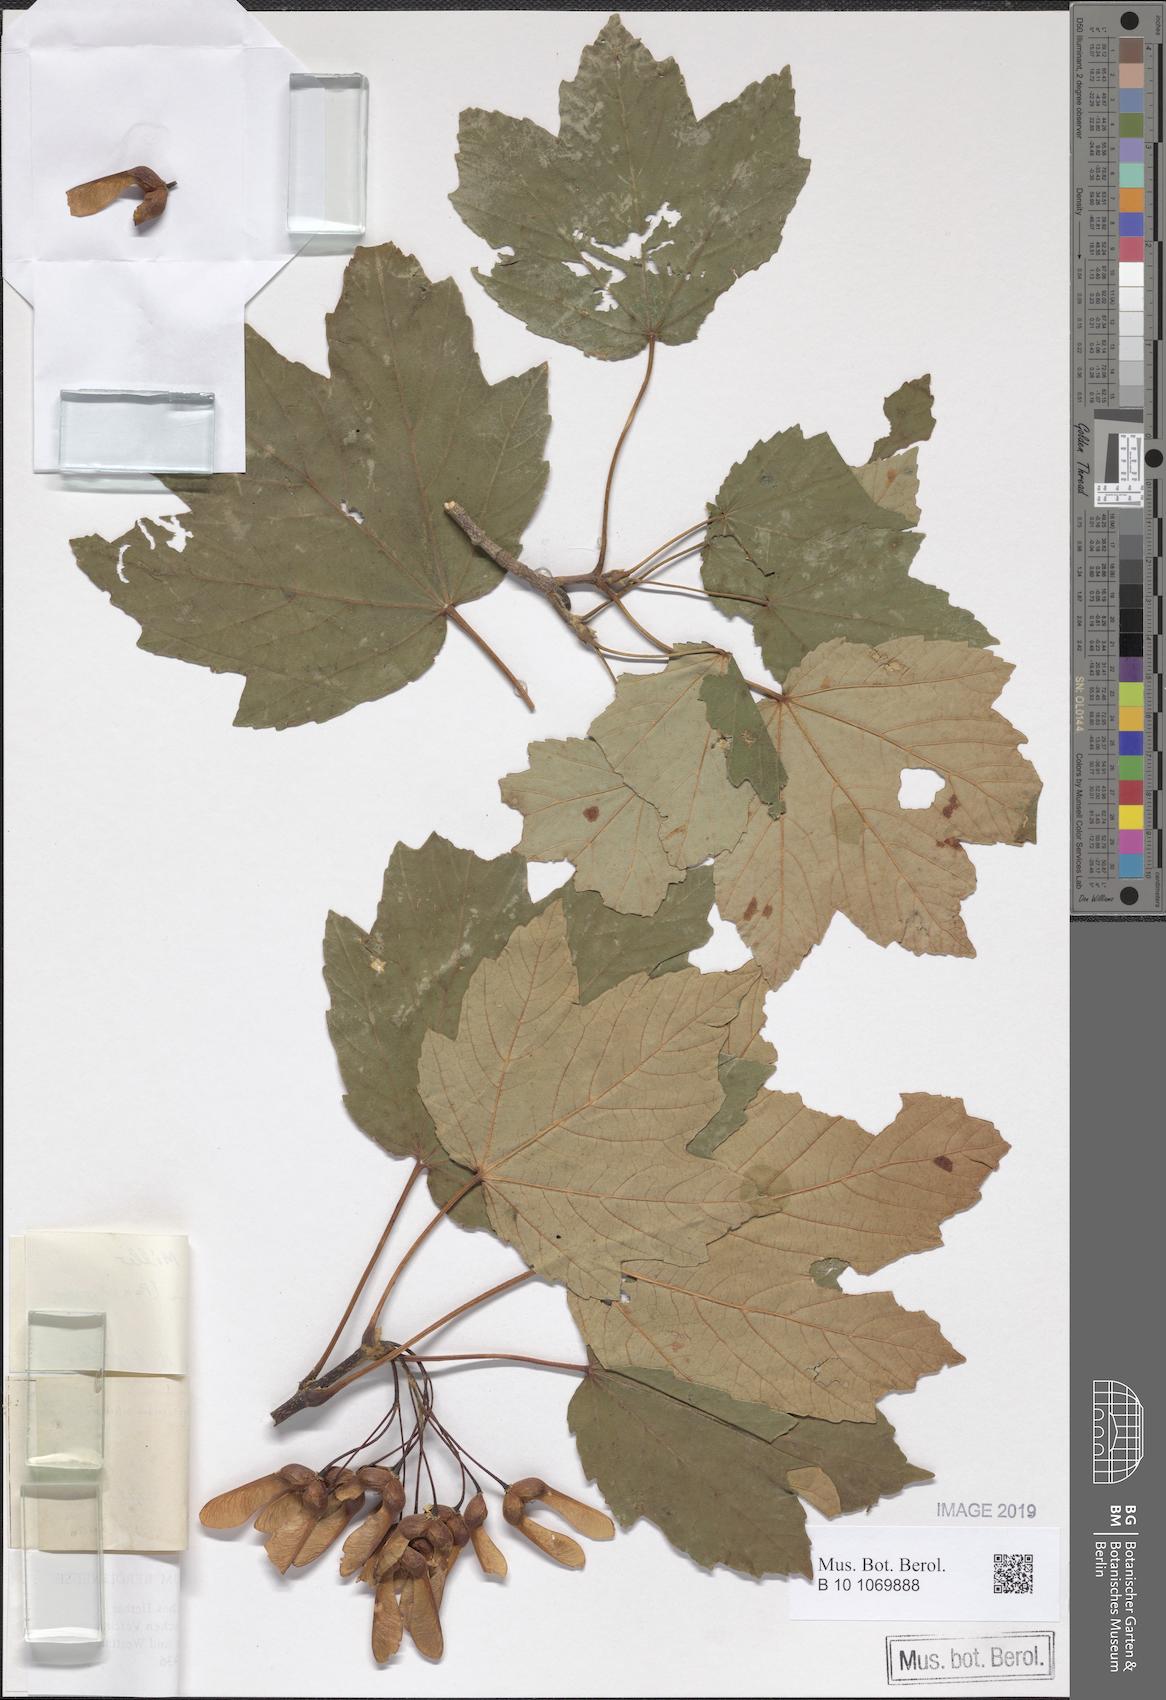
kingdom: Plantae
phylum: Tracheophyta
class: Magnoliopsida
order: Sapindales
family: Sapindaceae
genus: Acer
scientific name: Acer granatense
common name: Spanish maple
